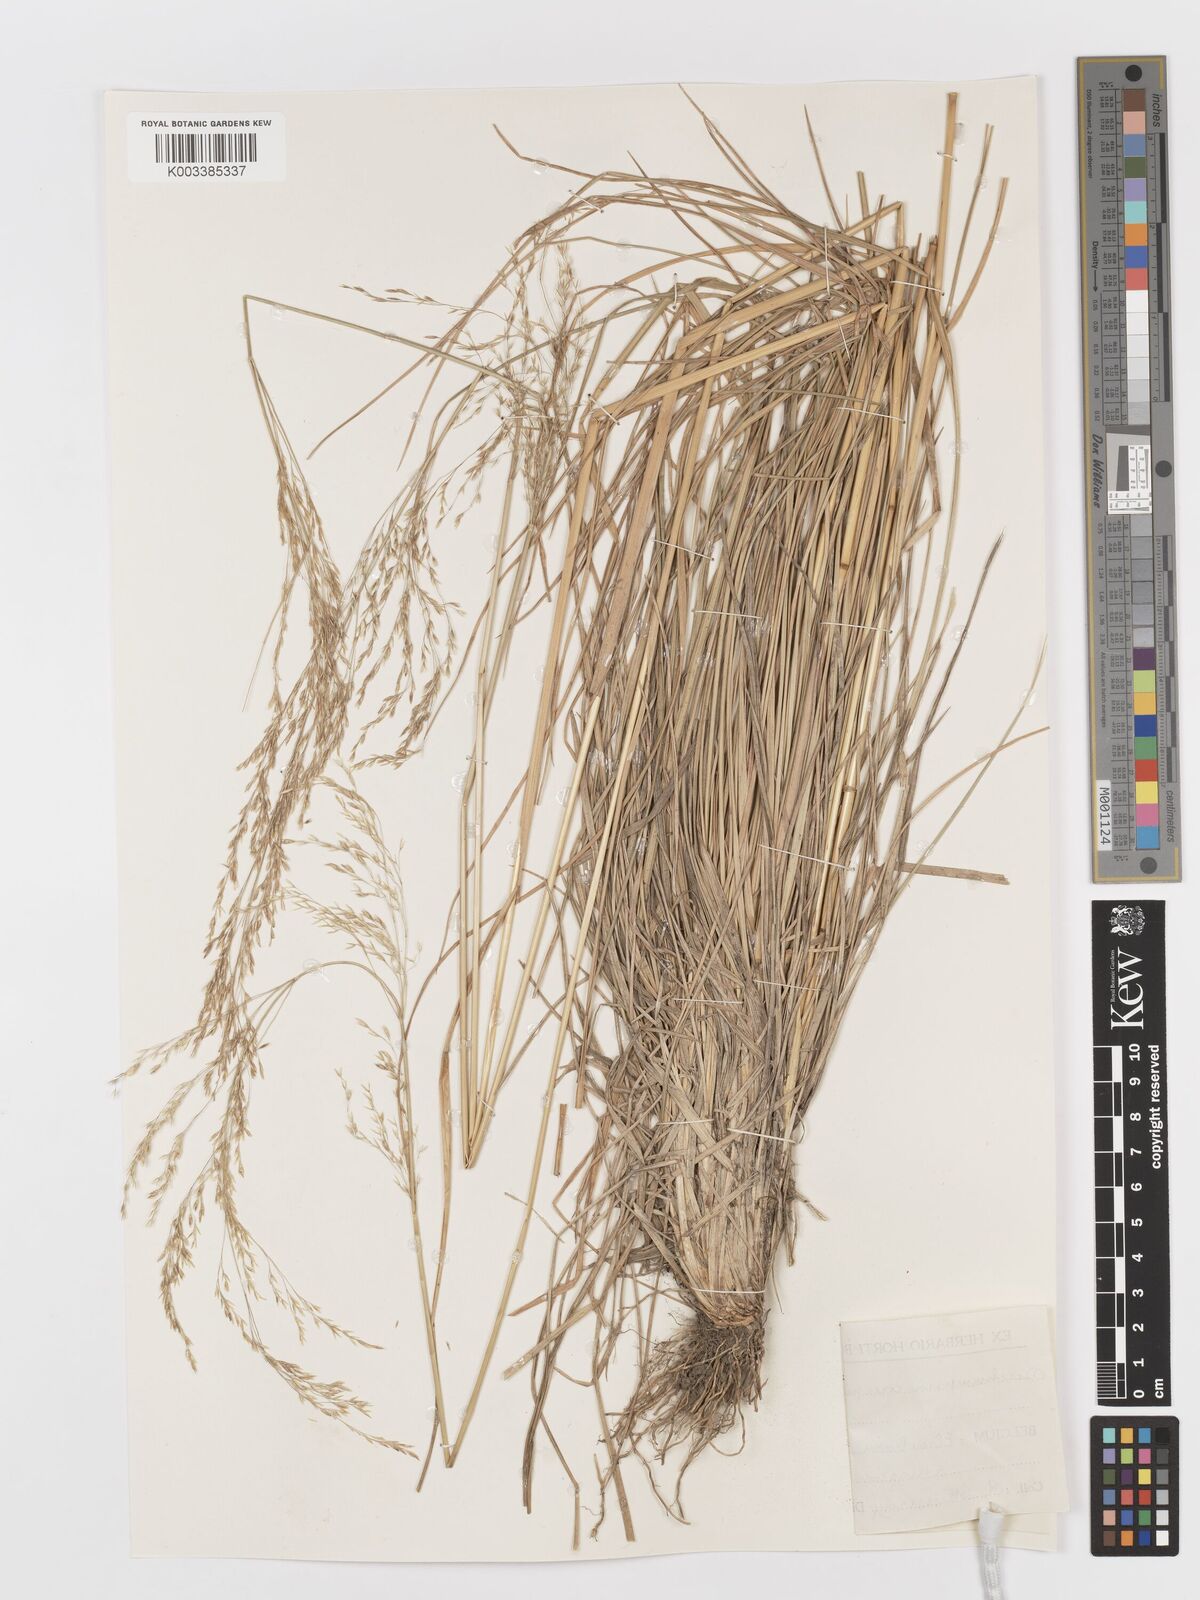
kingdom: Plantae
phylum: Tracheophyta
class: Liliopsida
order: Poales
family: Poaceae
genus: Deschampsia
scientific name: Deschampsia cespitosa
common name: Tufted hair-grass
